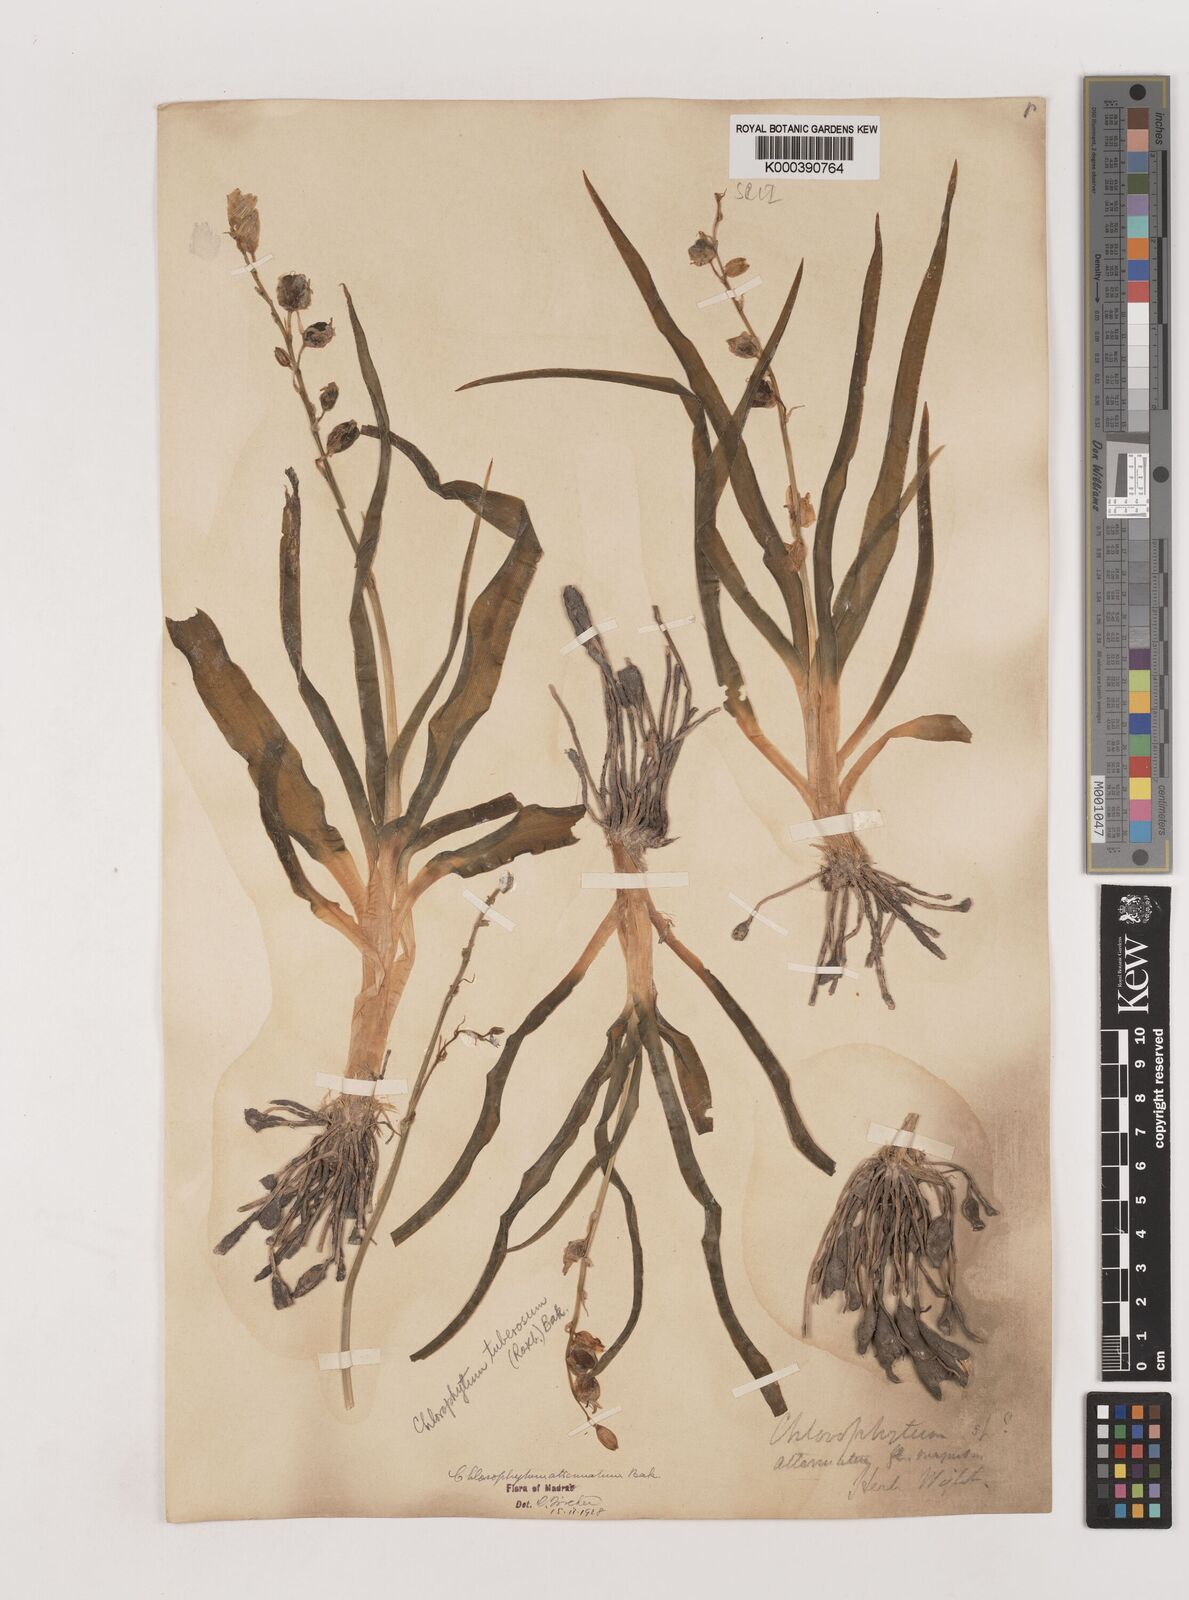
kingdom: Plantae
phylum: Tracheophyta
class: Liliopsida
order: Asparagales
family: Asparagaceae
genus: Chlorophytum
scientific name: Chlorophytum tuberosum
